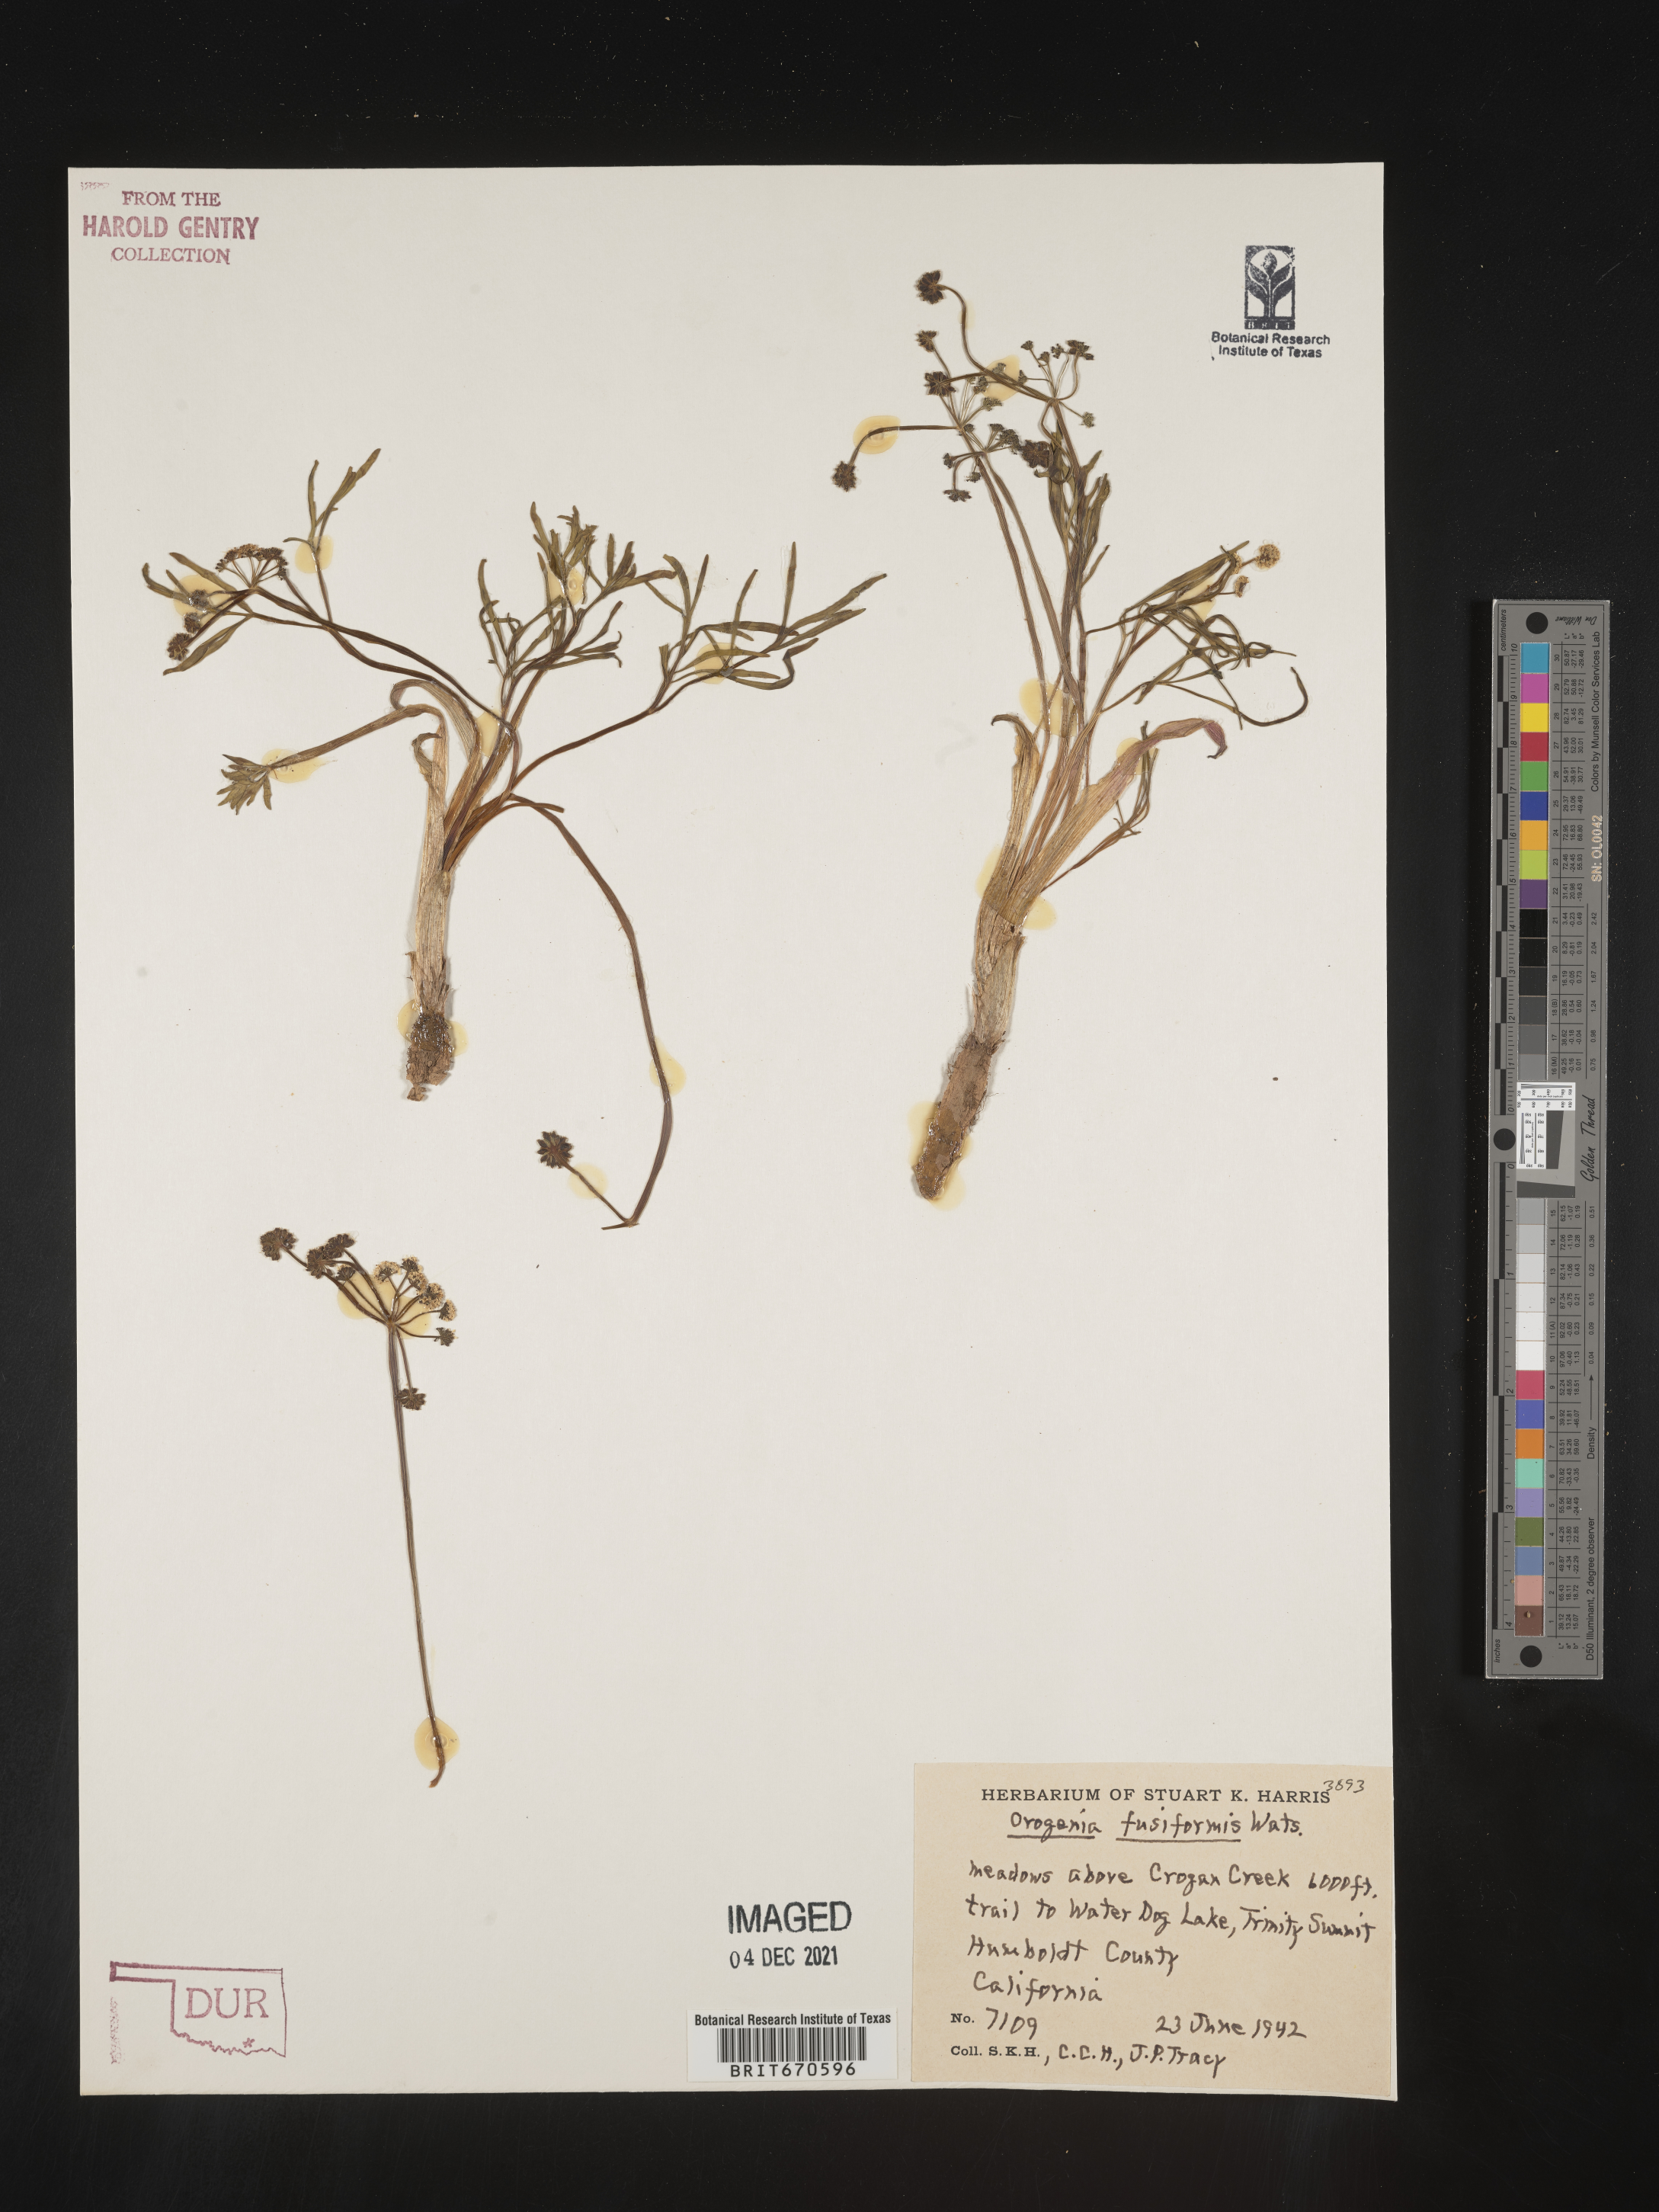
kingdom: Plantae
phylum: Tracheophyta
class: Magnoliopsida
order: Apiales
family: Apiaceae
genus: Lomatium
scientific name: Lomatium fusiformis
